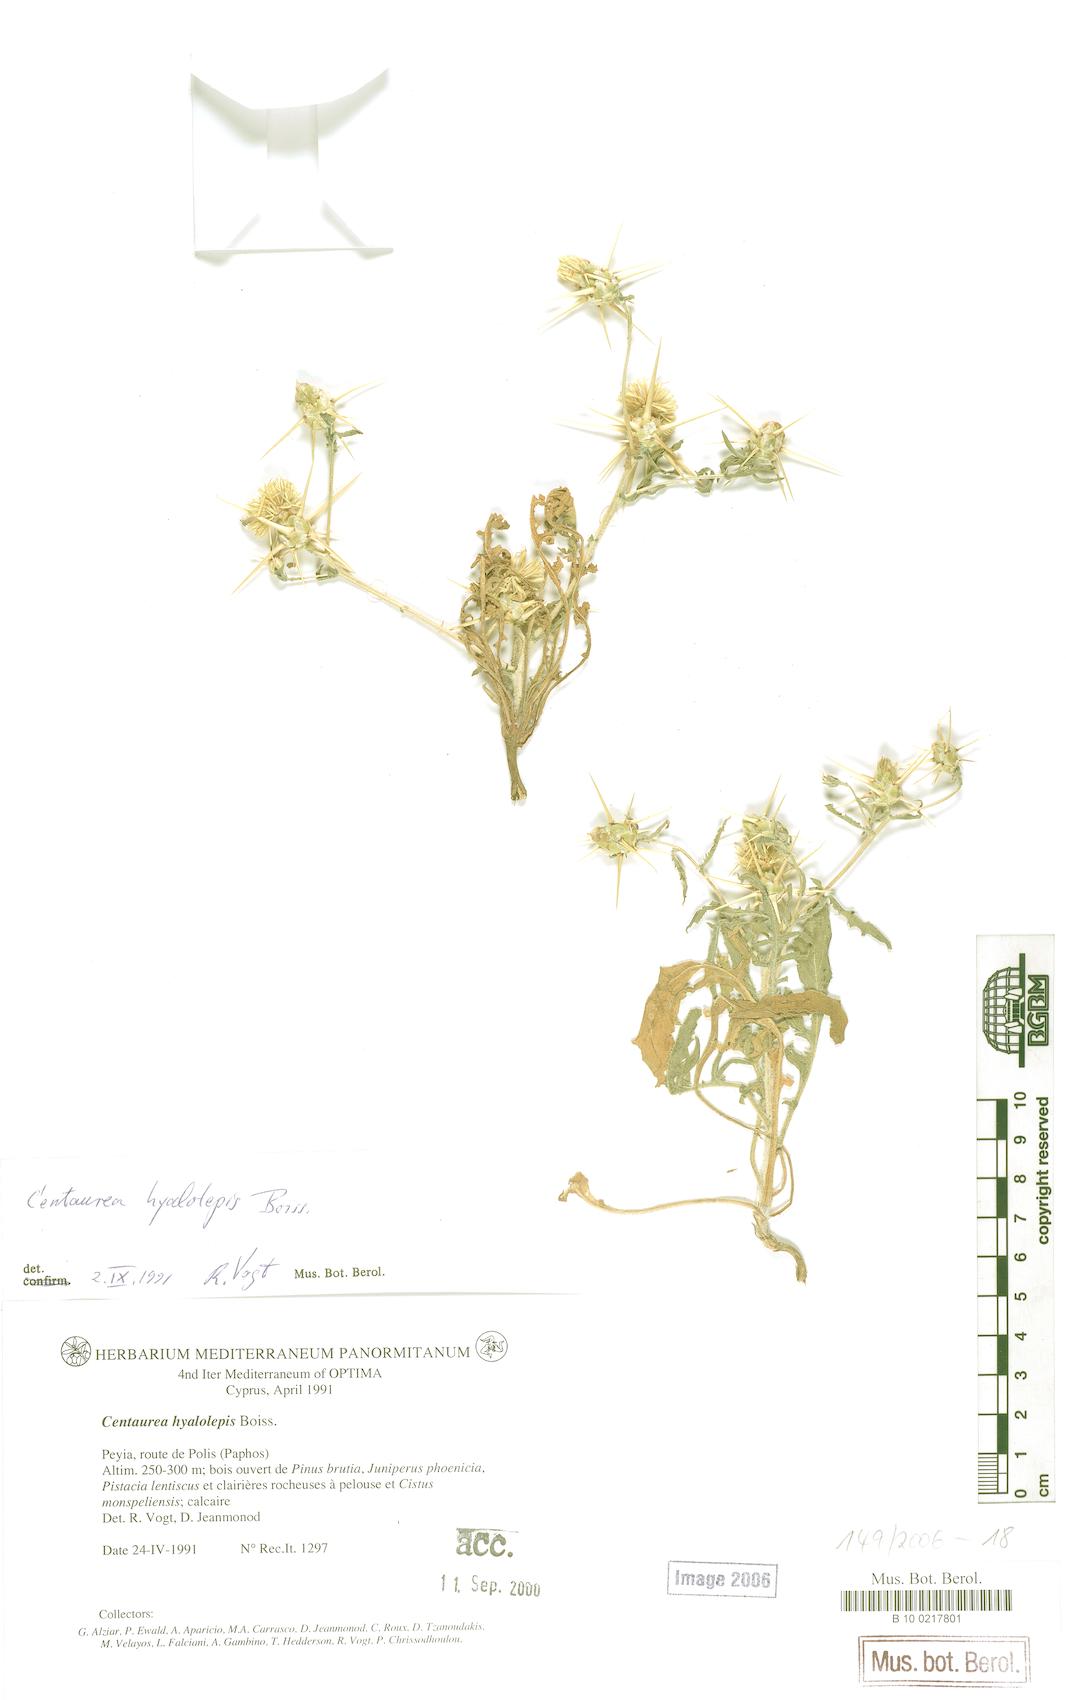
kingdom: Plantae
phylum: Tracheophyta
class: Magnoliopsida
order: Asterales
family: Asteraceae
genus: Centaurea
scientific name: Centaurea hyalolepis
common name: Eastern star-thistle
